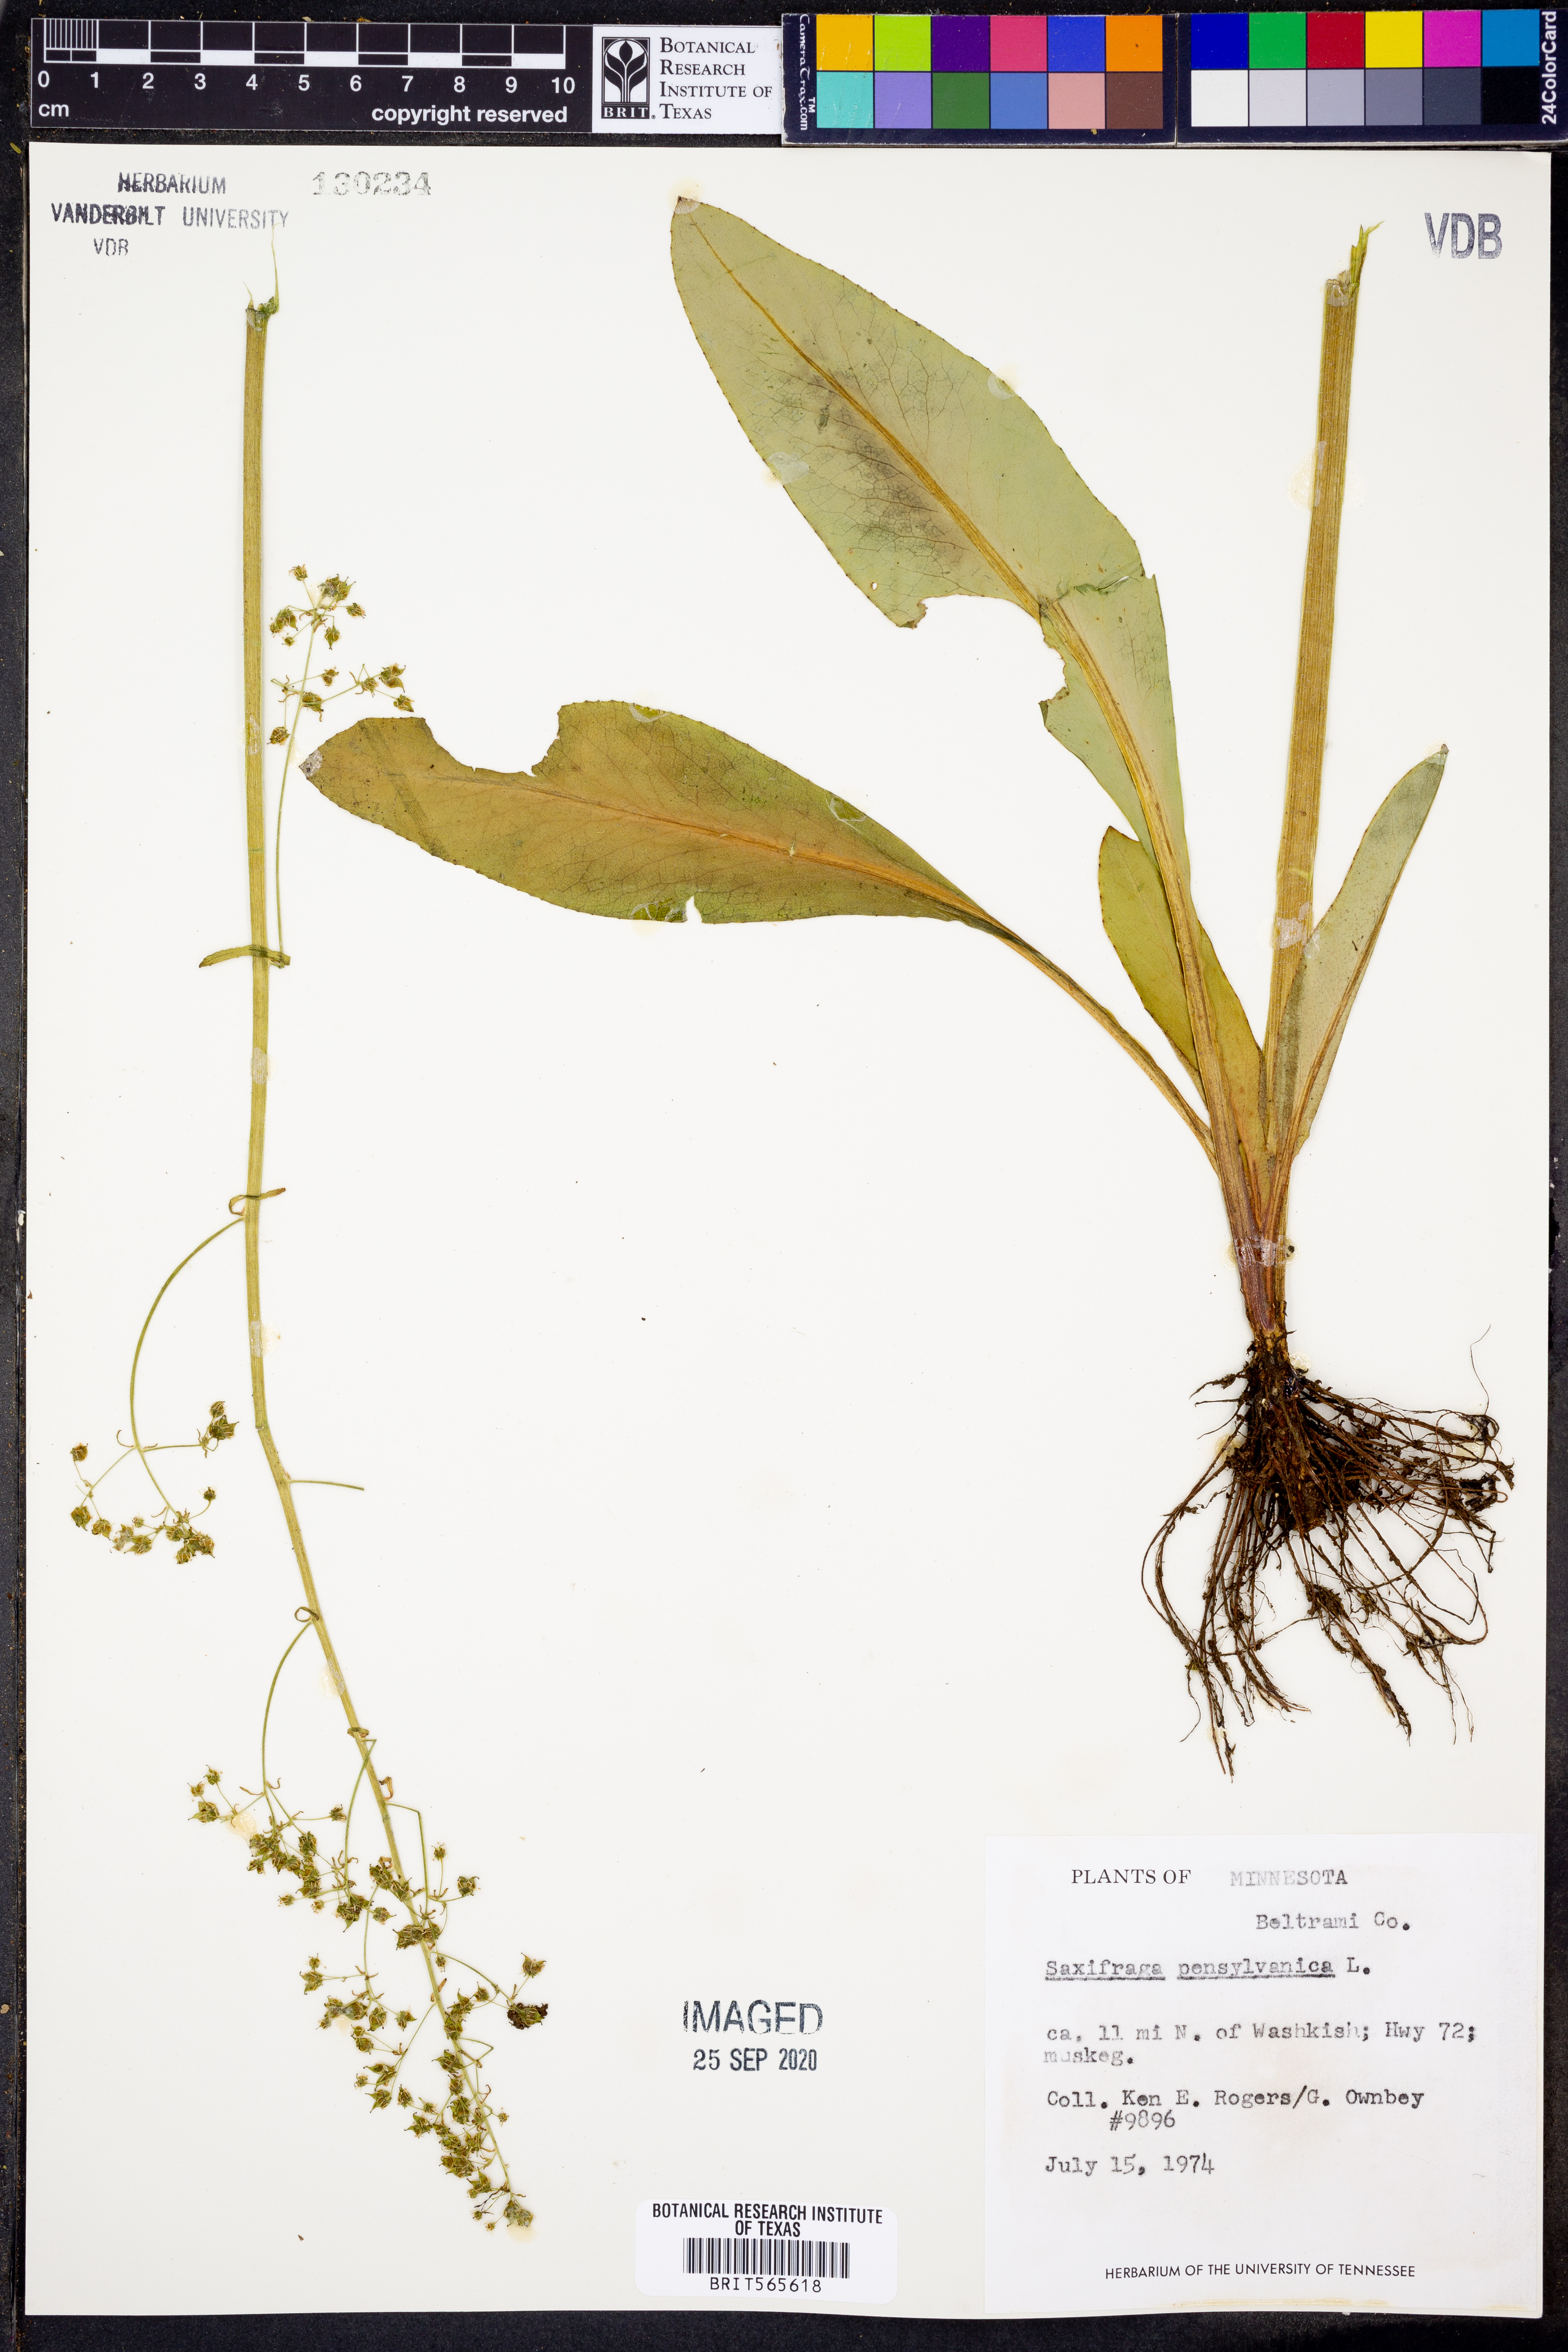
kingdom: Plantae
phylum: Tracheophyta
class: Magnoliopsida
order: Saxifragales
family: Saxifragaceae
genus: Micranthes
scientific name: Micranthes pensylvanica
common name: Marsh saxifrage
